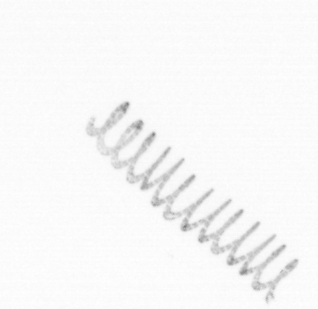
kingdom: Chromista
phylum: Ochrophyta
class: Bacillariophyceae
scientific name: Bacillariophyceae
